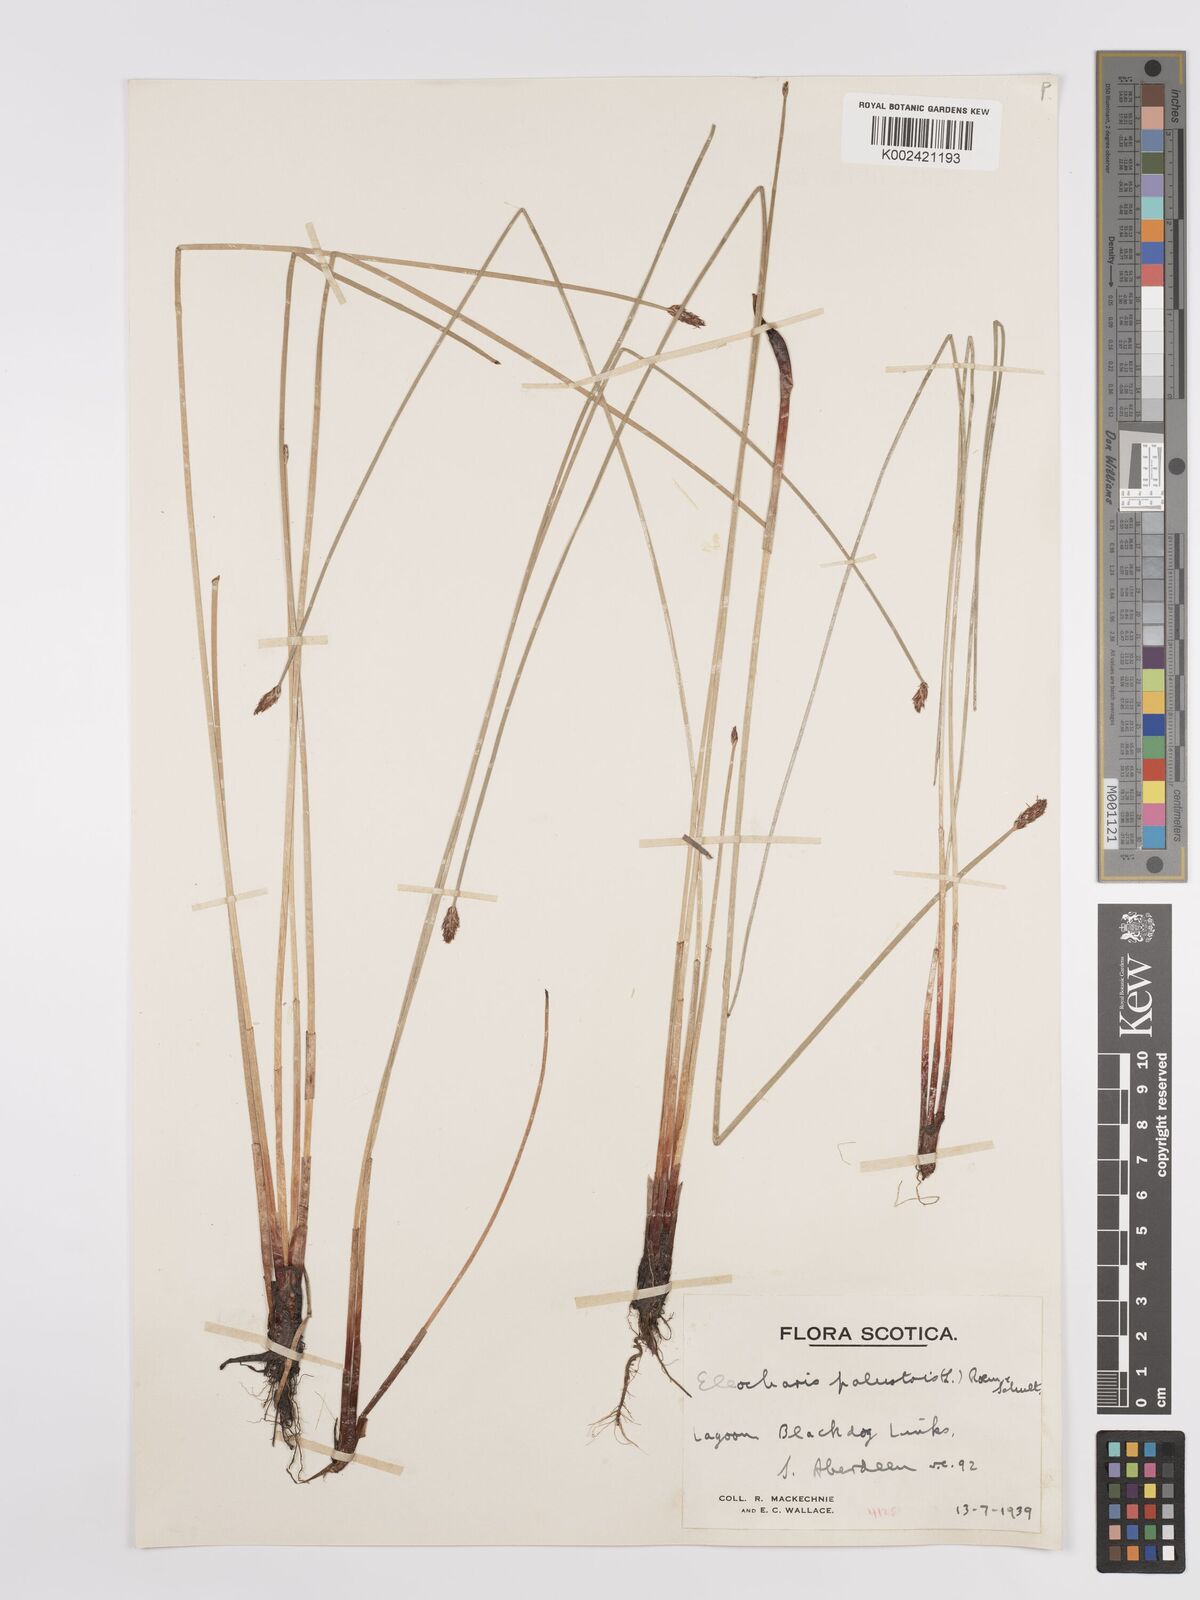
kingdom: Plantae
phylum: Tracheophyta
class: Liliopsida
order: Poales
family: Cyperaceae
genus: Eleocharis
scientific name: Eleocharis palustris
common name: Common spike-rush
